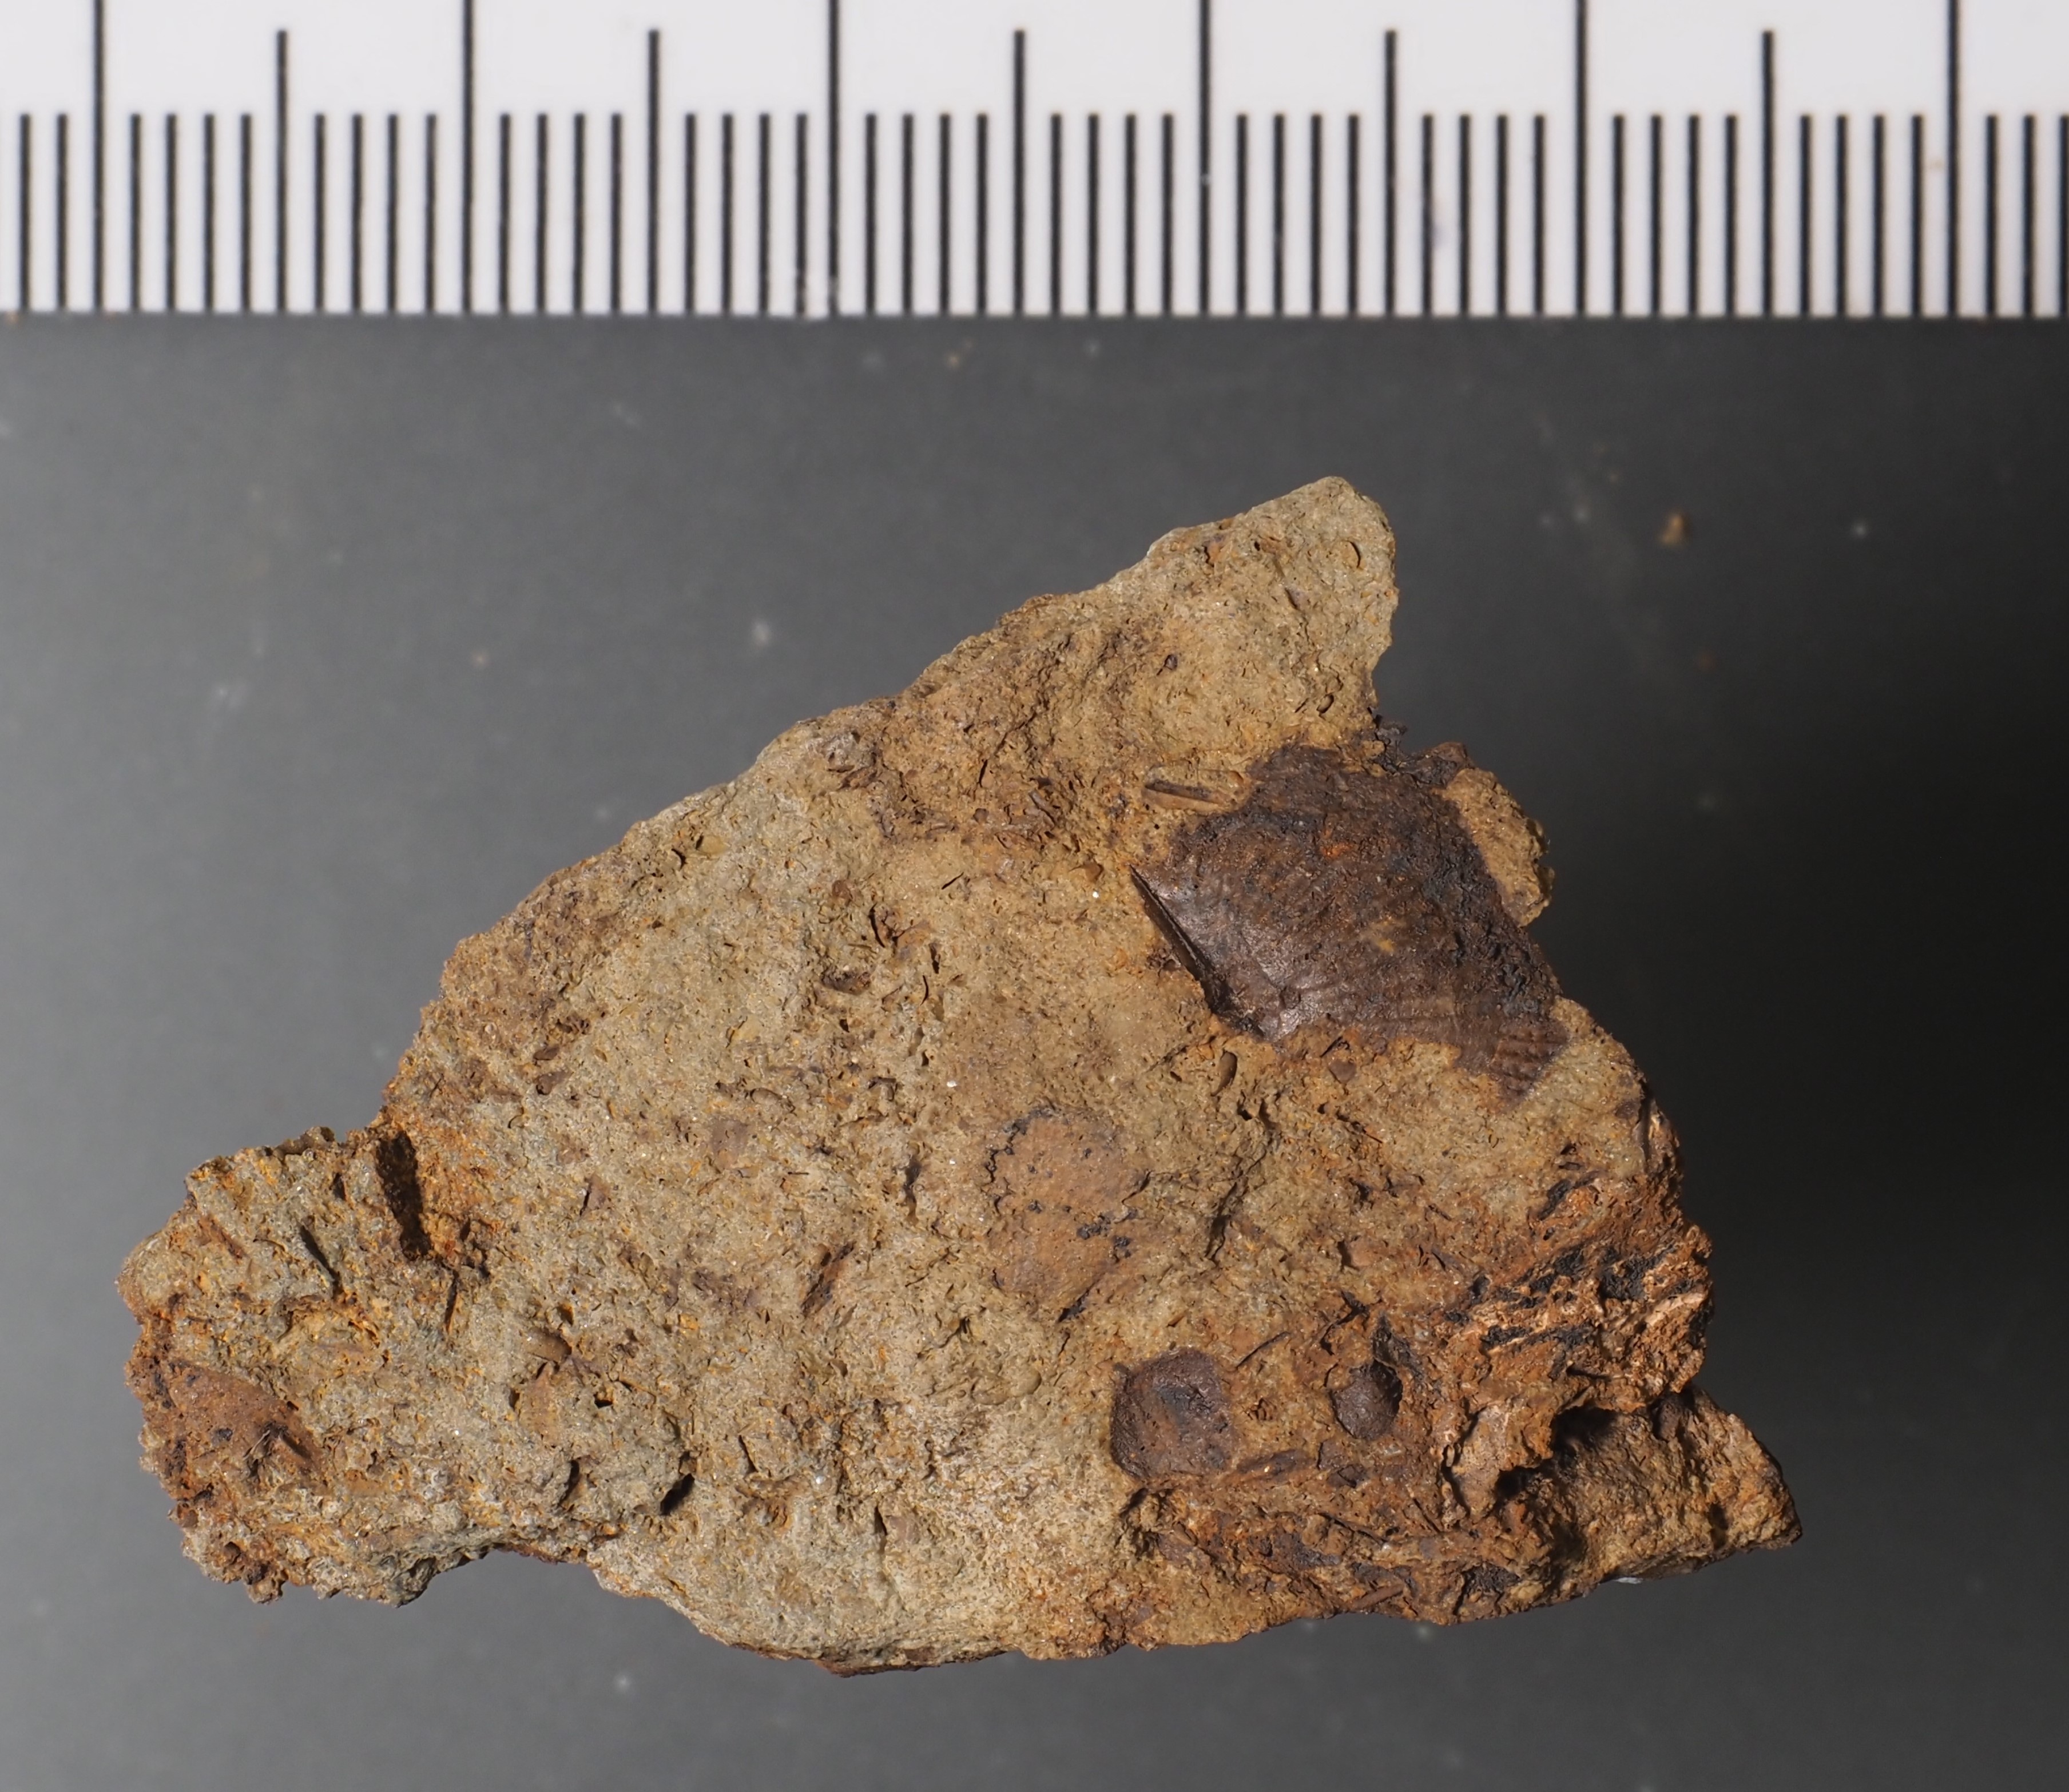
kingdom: Animalia
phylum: Arthropoda
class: Ostracoda
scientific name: Ostracoda
